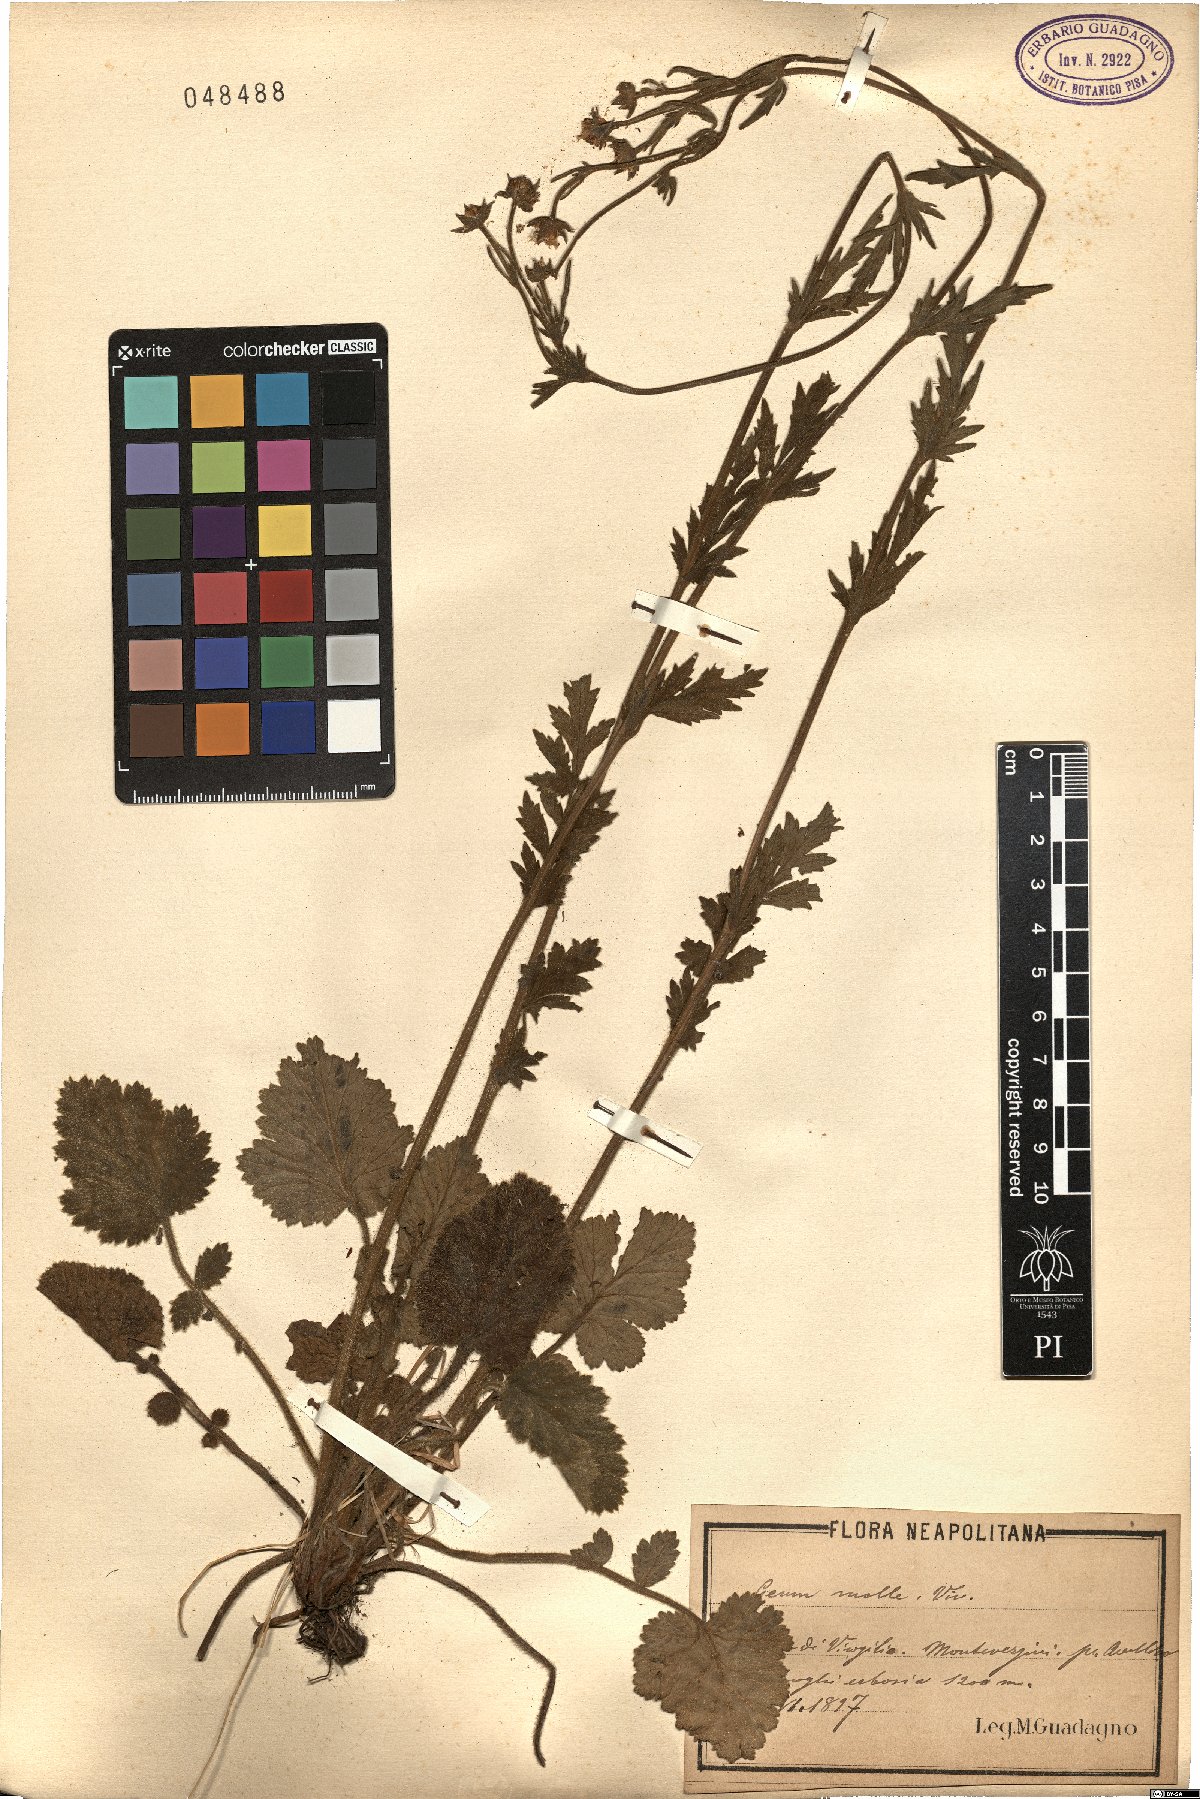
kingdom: Plantae
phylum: Tracheophyta
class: Magnoliopsida
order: Rosales
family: Rosaceae
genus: Geum
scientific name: Geum molle
